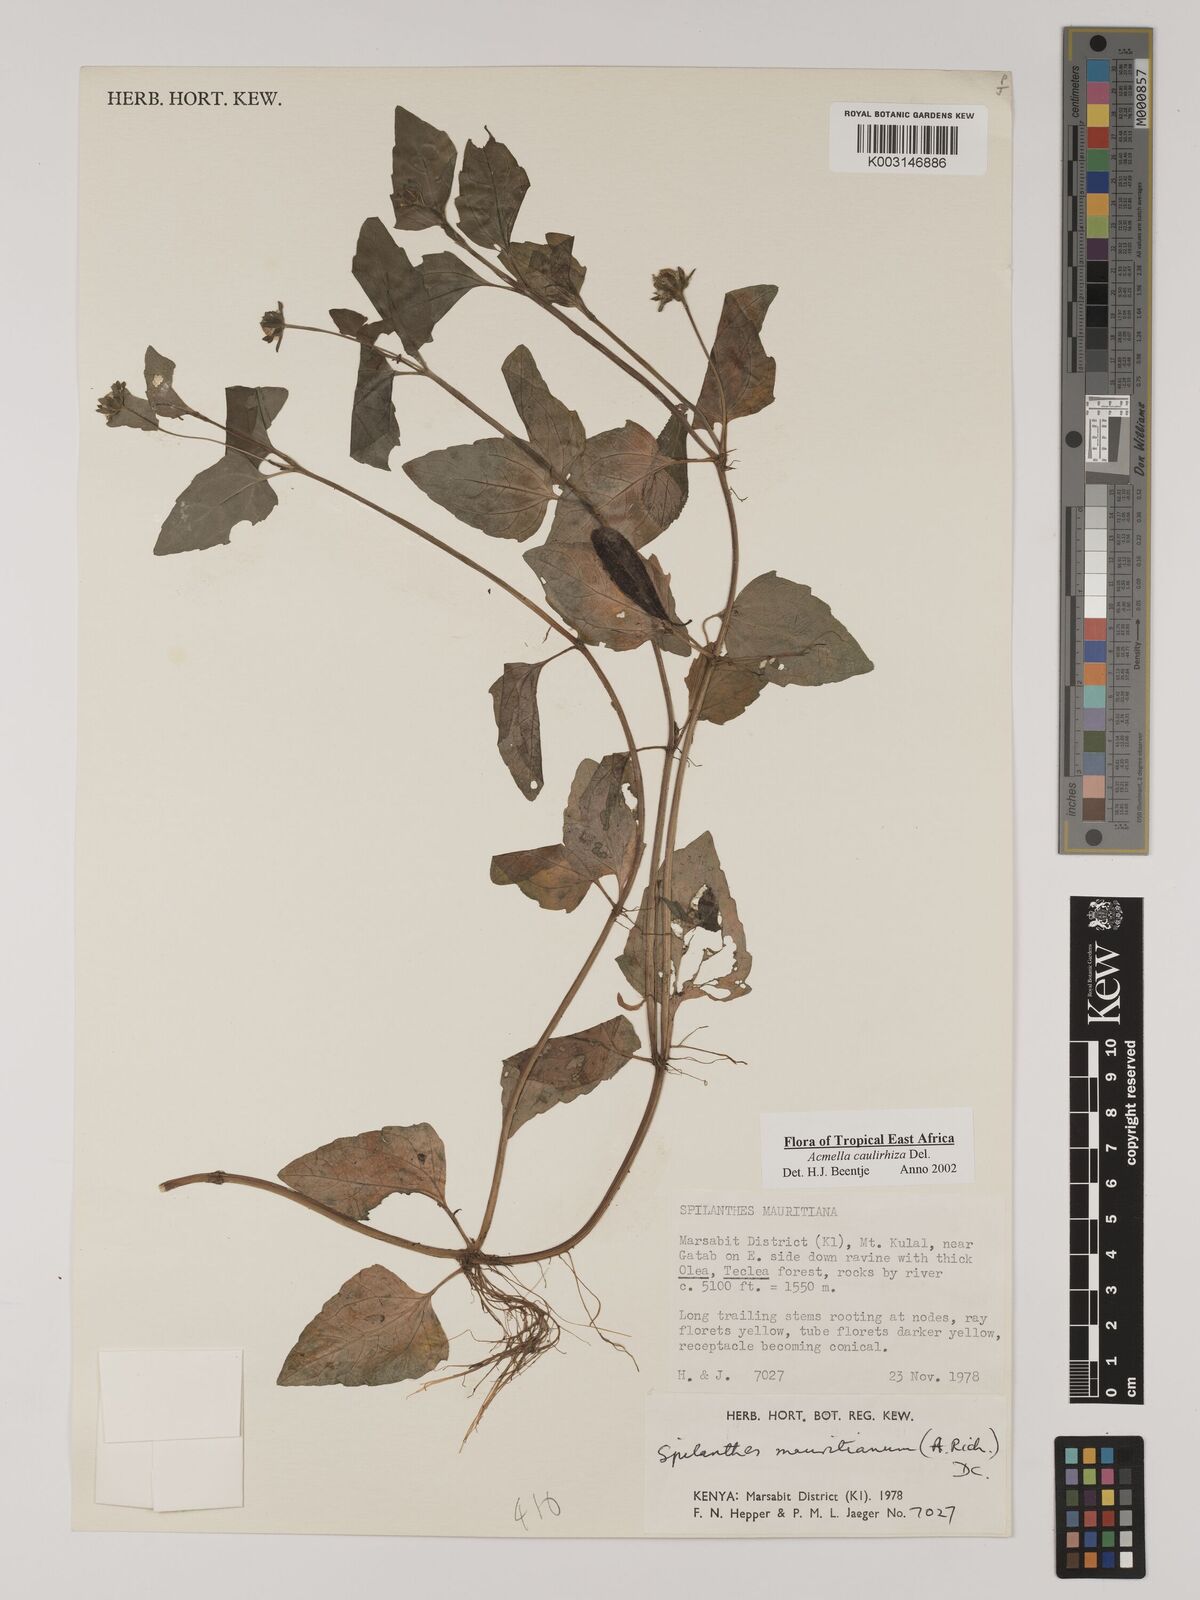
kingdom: Plantae
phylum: Tracheophyta
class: Magnoliopsida
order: Asterales
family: Asteraceae
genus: Acmella
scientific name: Acmella caulirhiza
